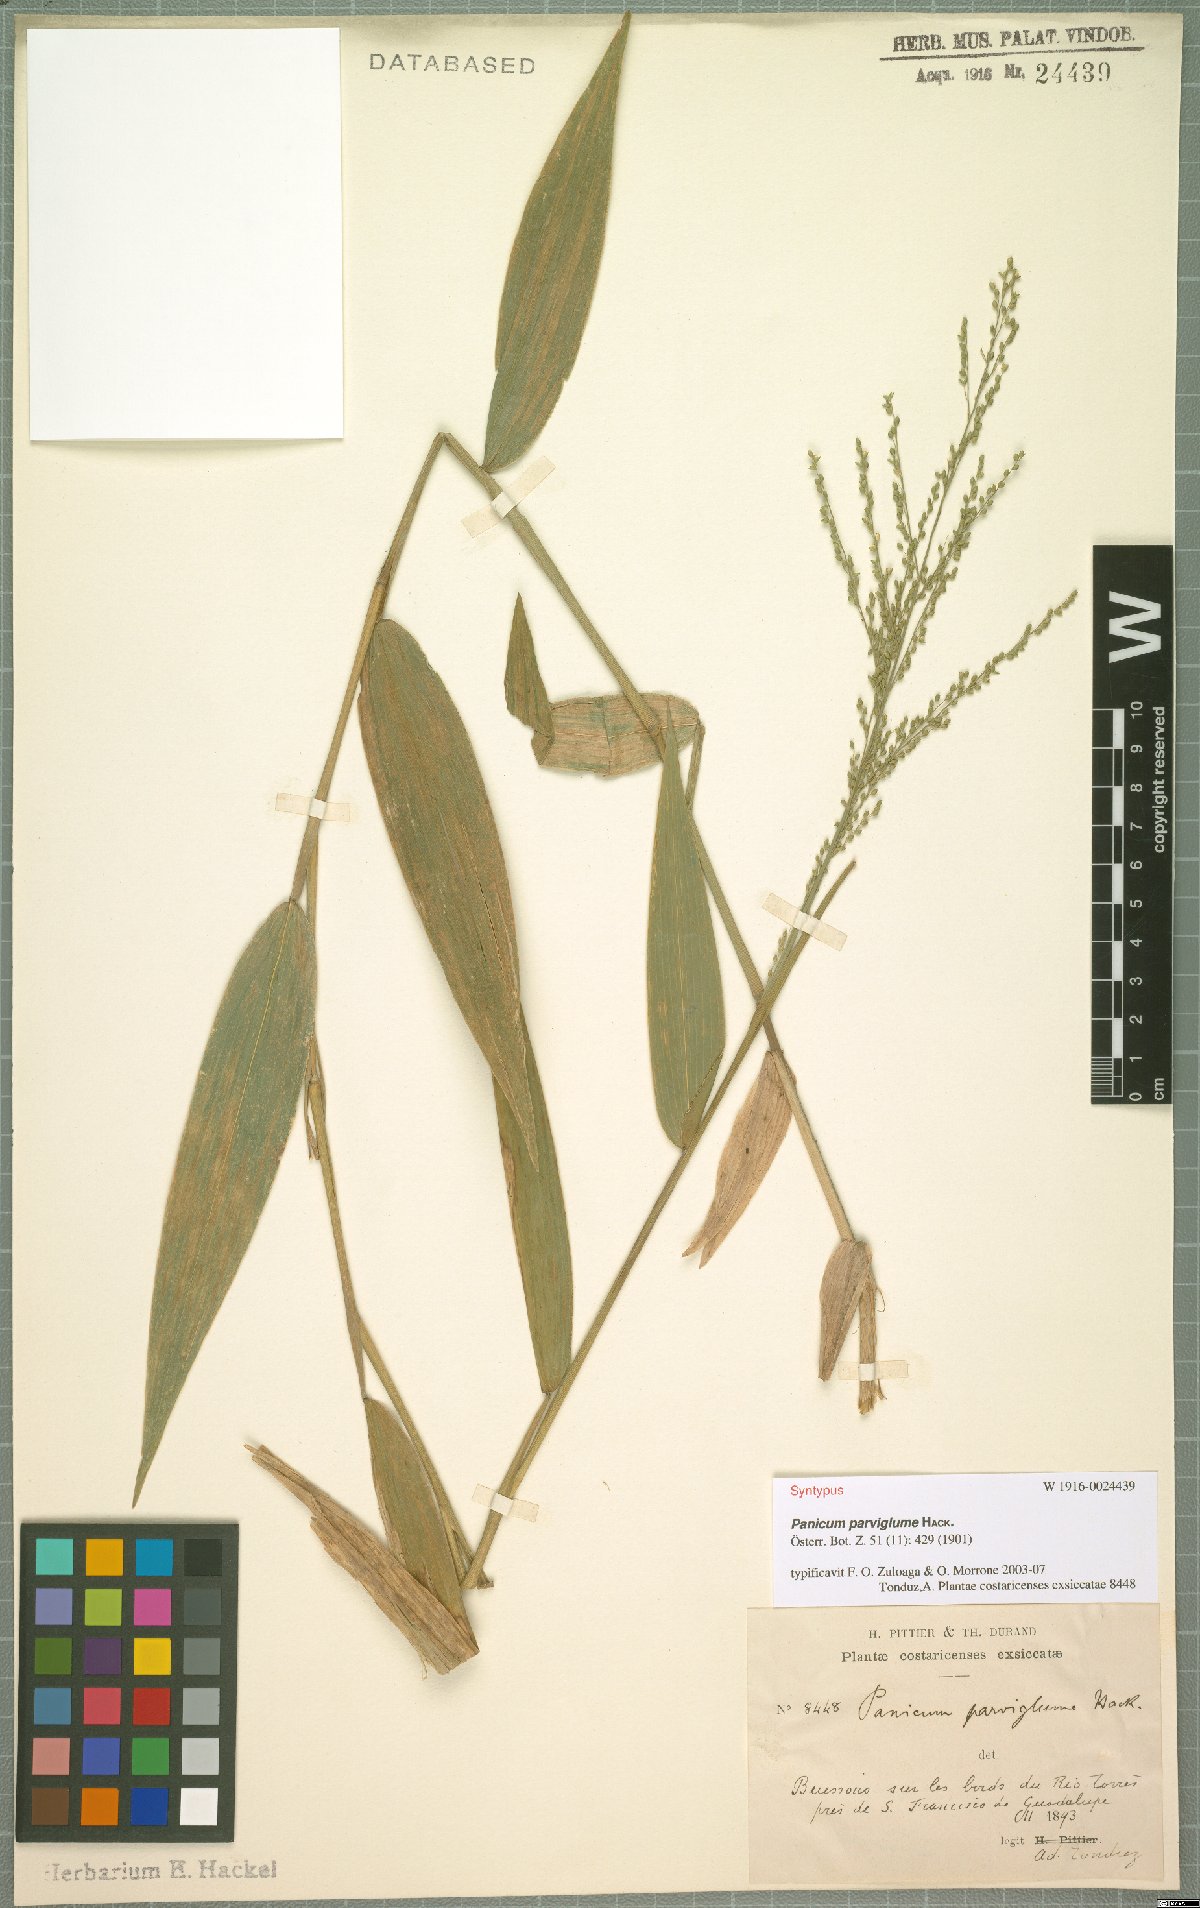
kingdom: Plantae
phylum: Tracheophyta
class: Liliopsida
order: Poales
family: Poaceae
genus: Morronea
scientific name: Morronea parviglumis
